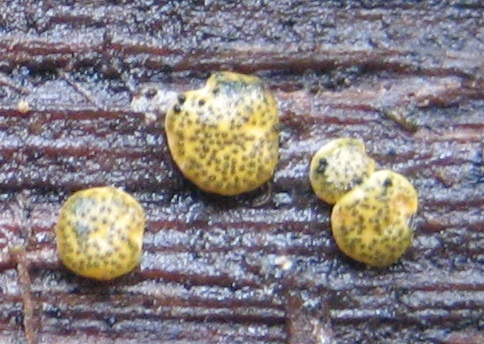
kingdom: Fungi
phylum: Ascomycota
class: Sordariomycetes
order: Hypocreales
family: Hypocreaceae
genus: Trichoderma
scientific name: Trichoderma aureoviride
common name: æggegul kødkerne
